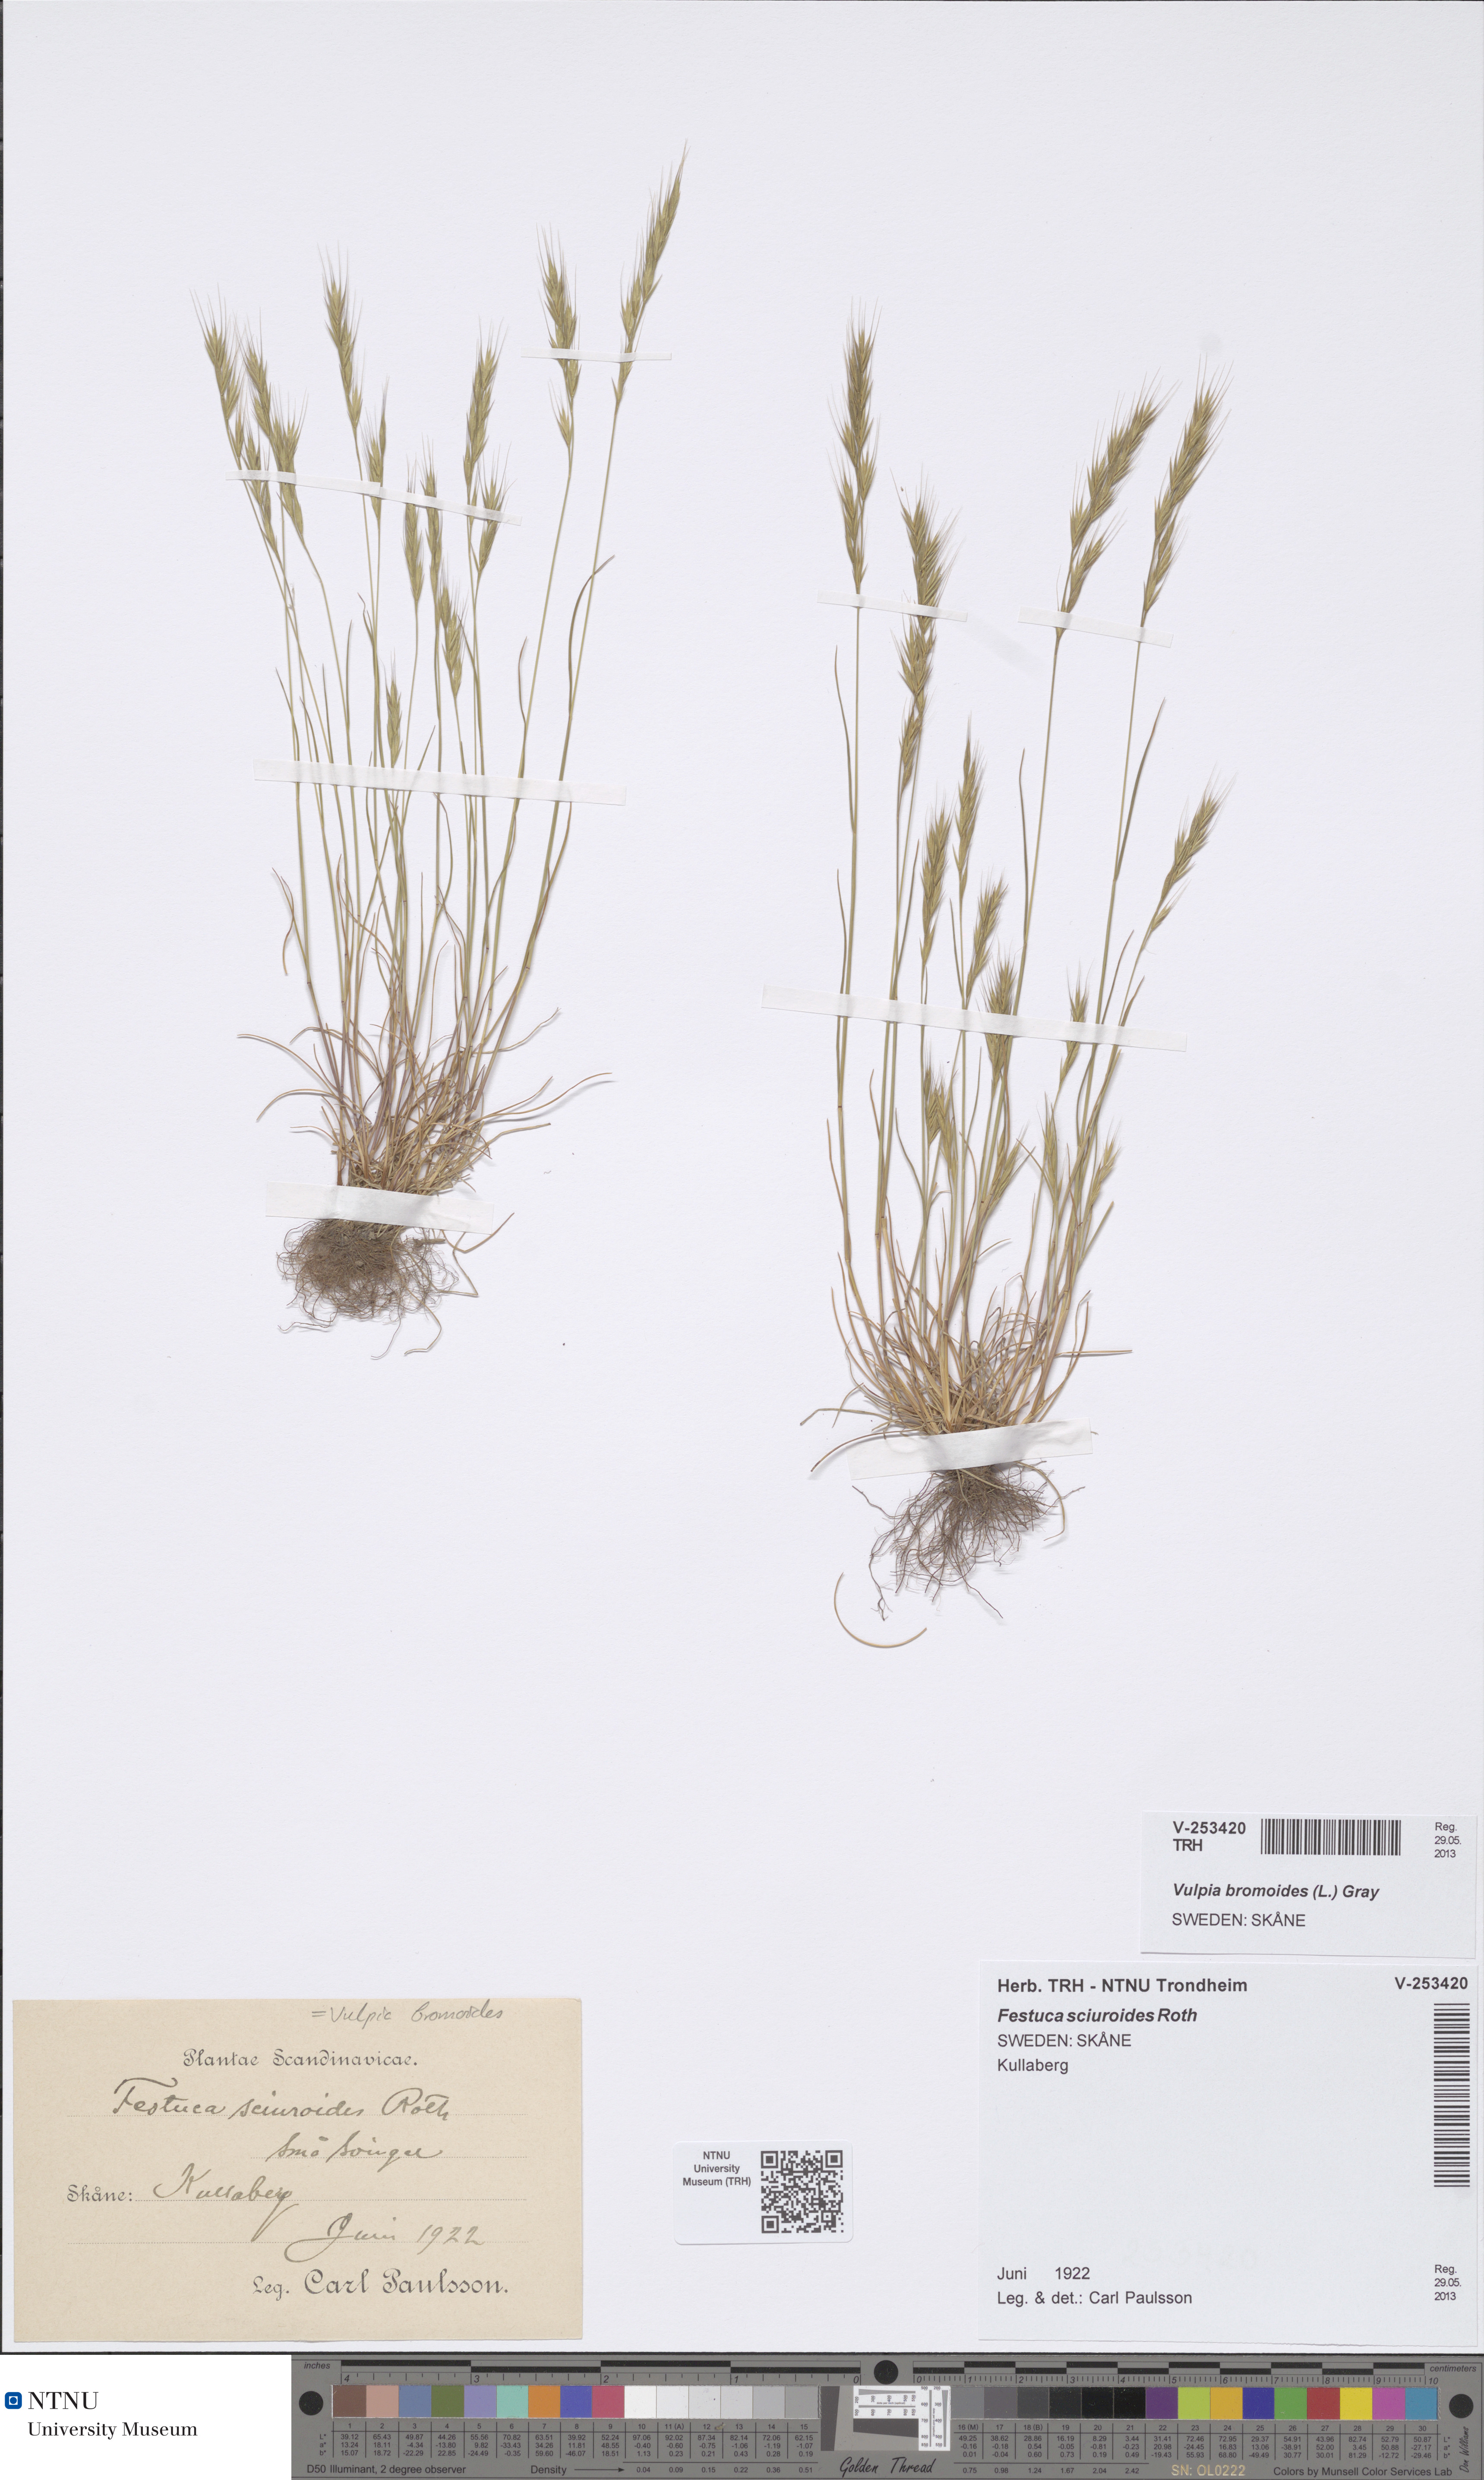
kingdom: Plantae
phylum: Tracheophyta
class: Liliopsida
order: Poales
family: Poaceae
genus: Festuca
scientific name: Festuca bromoides
